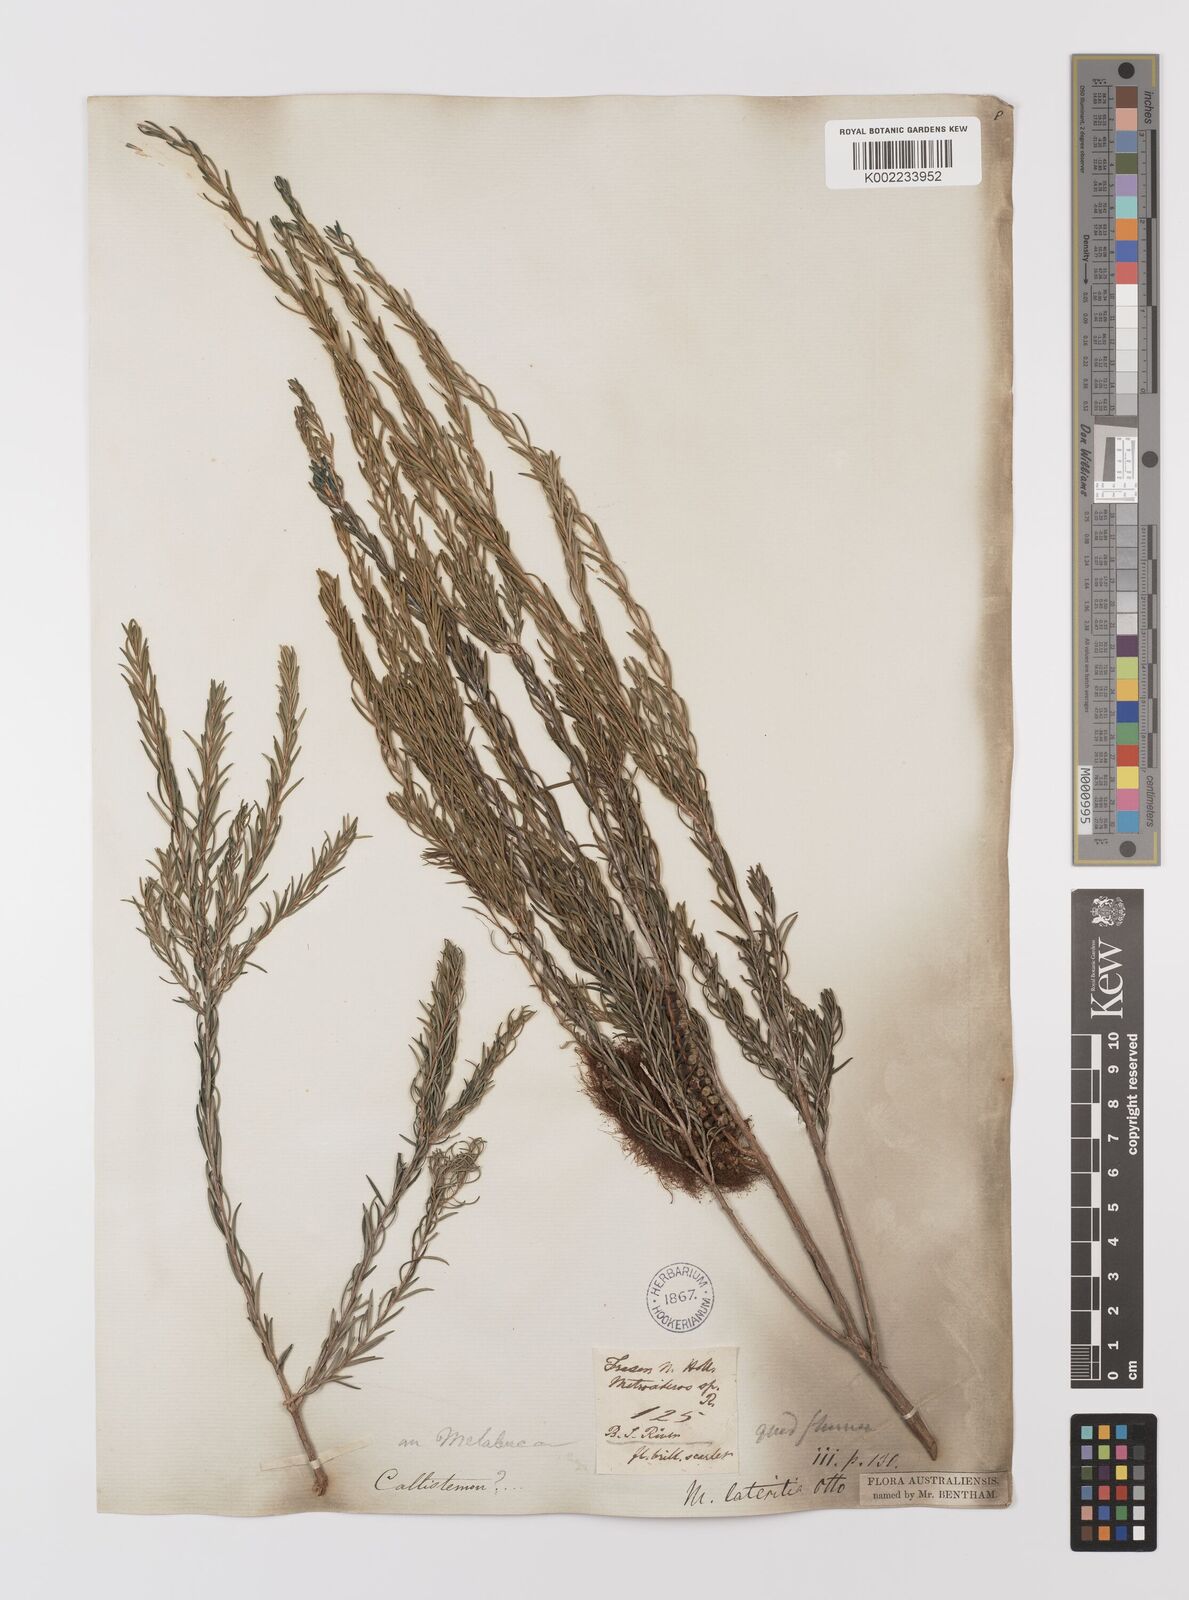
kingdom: Plantae
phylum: Tracheophyta
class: Magnoliopsida
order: Myrtales
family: Myrtaceae
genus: Melaleuca
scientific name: Melaleuca lateritia
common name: Robin red-breast
